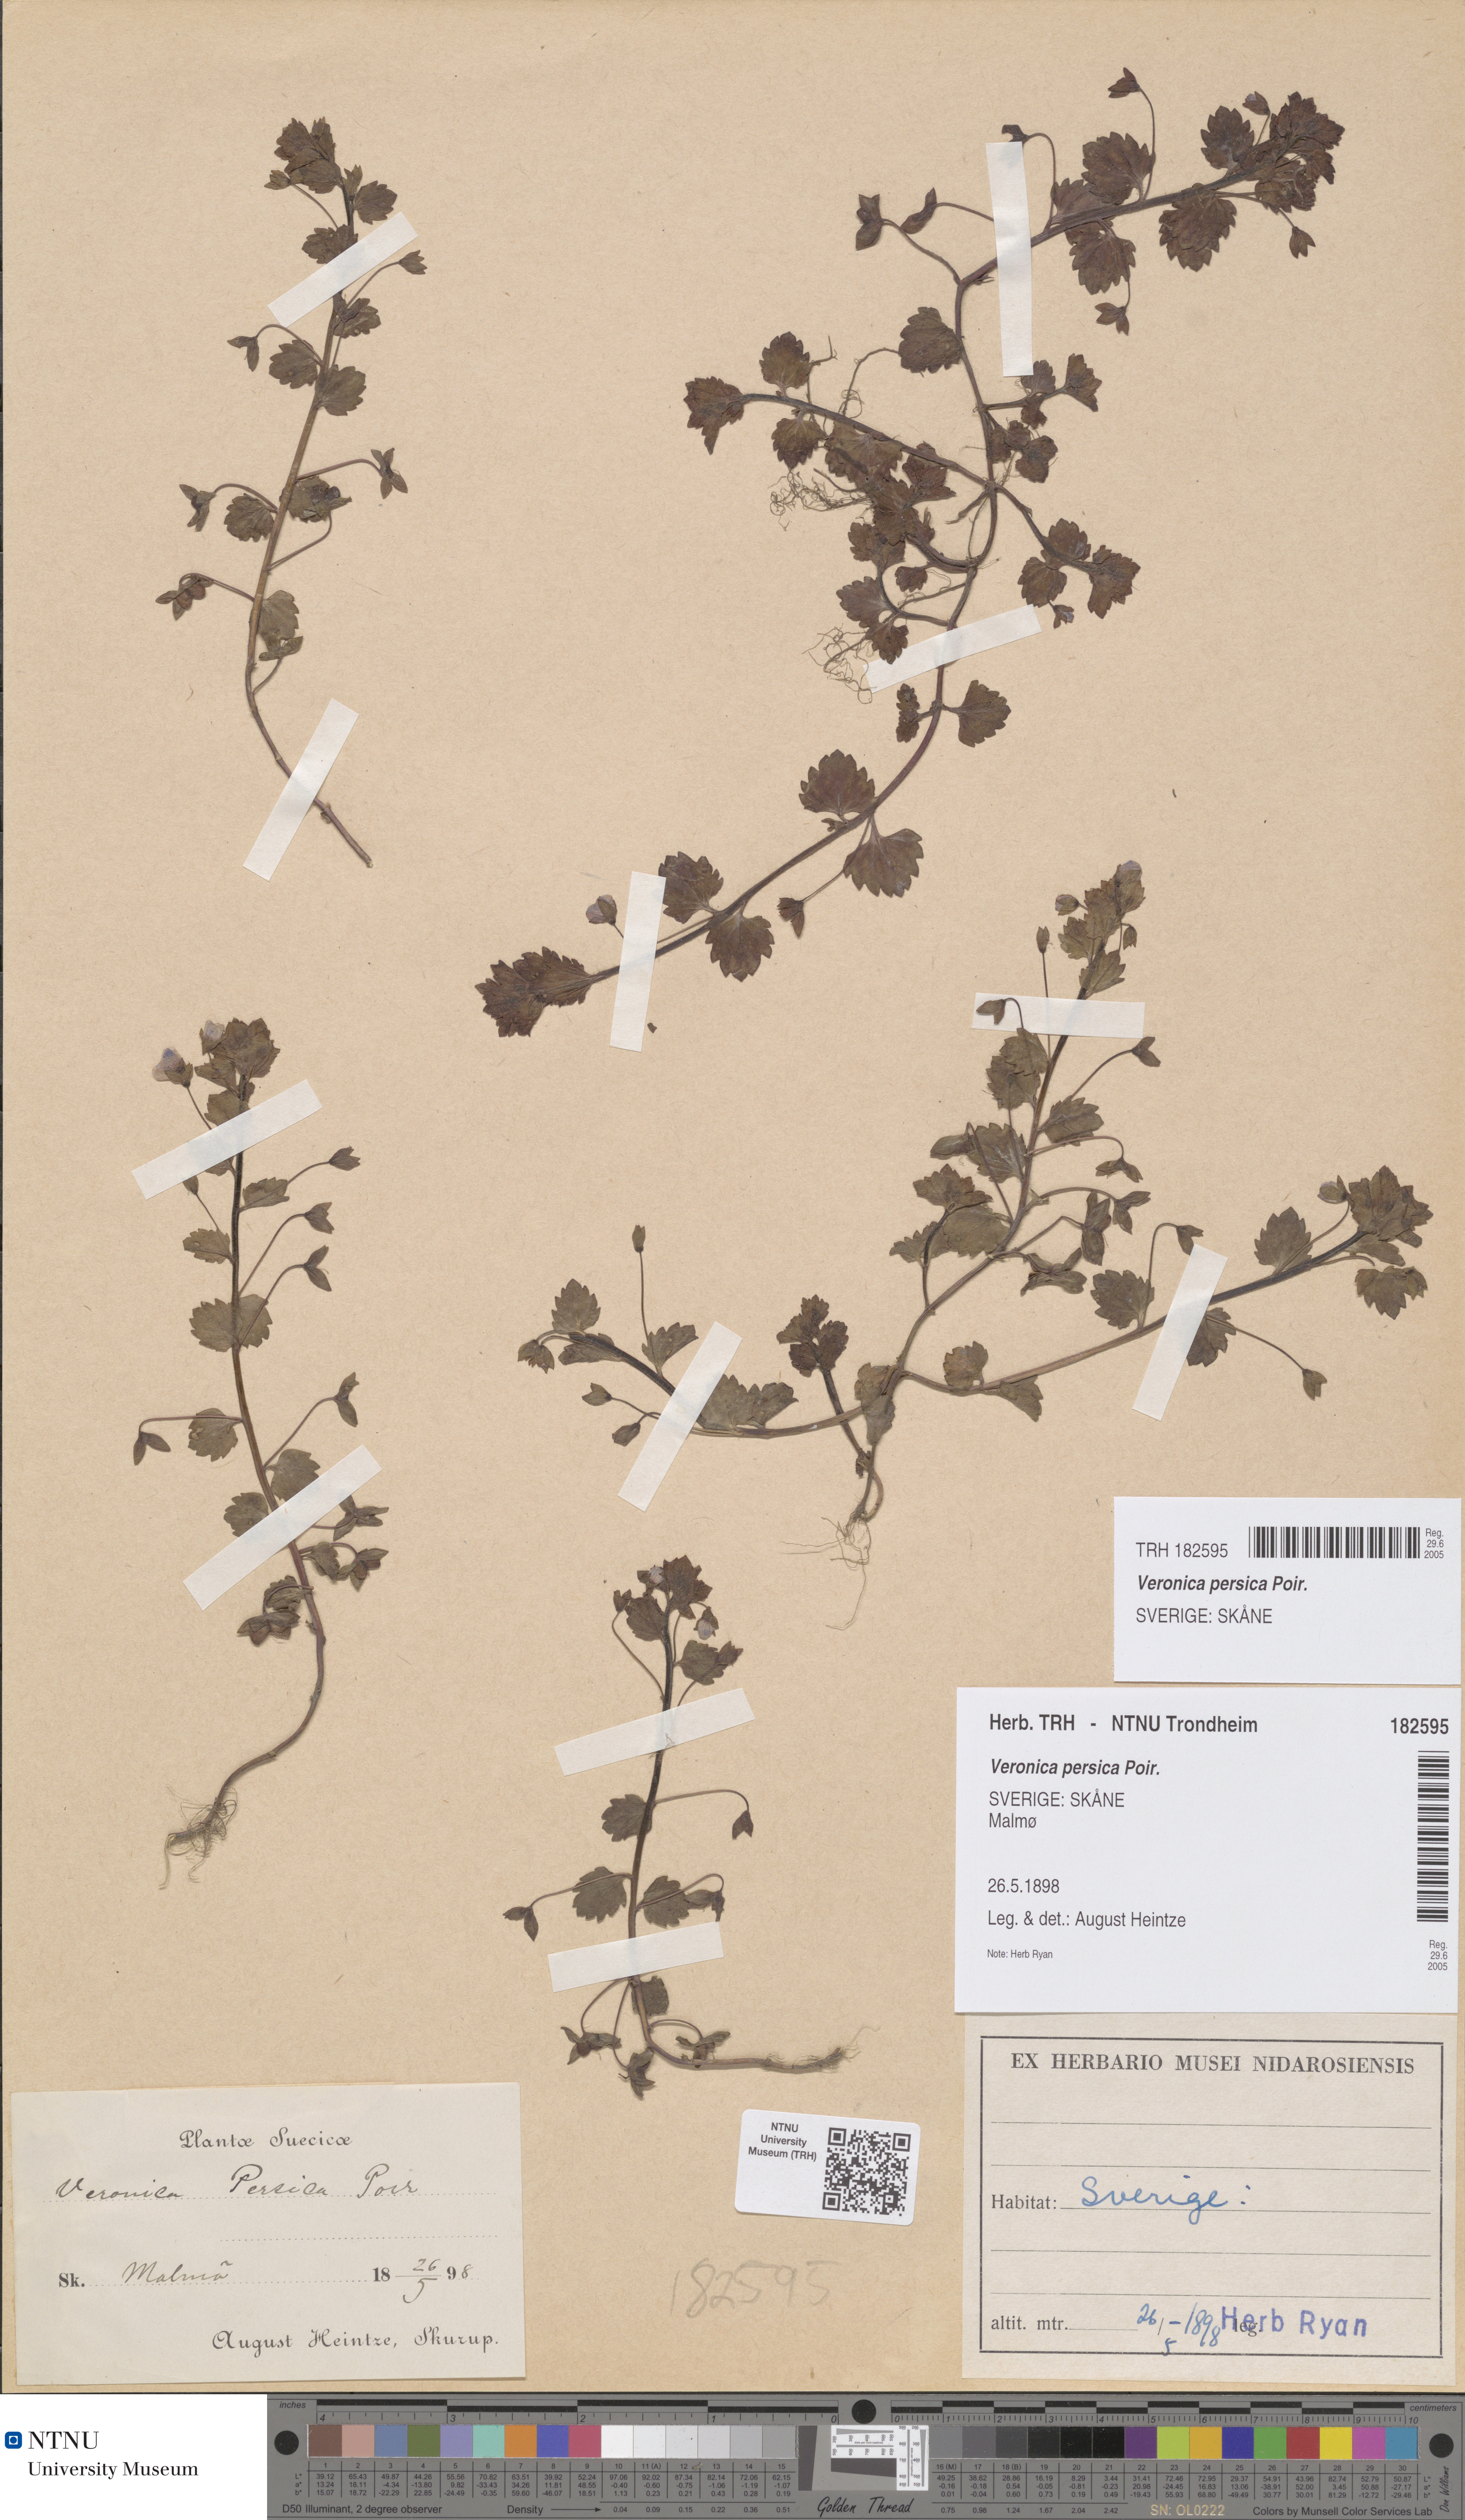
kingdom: Plantae
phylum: Tracheophyta
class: Magnoliopsida
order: Lamiales
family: Plantaginaceae
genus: Veronica
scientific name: Veronica persica
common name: Common field-speedwell
